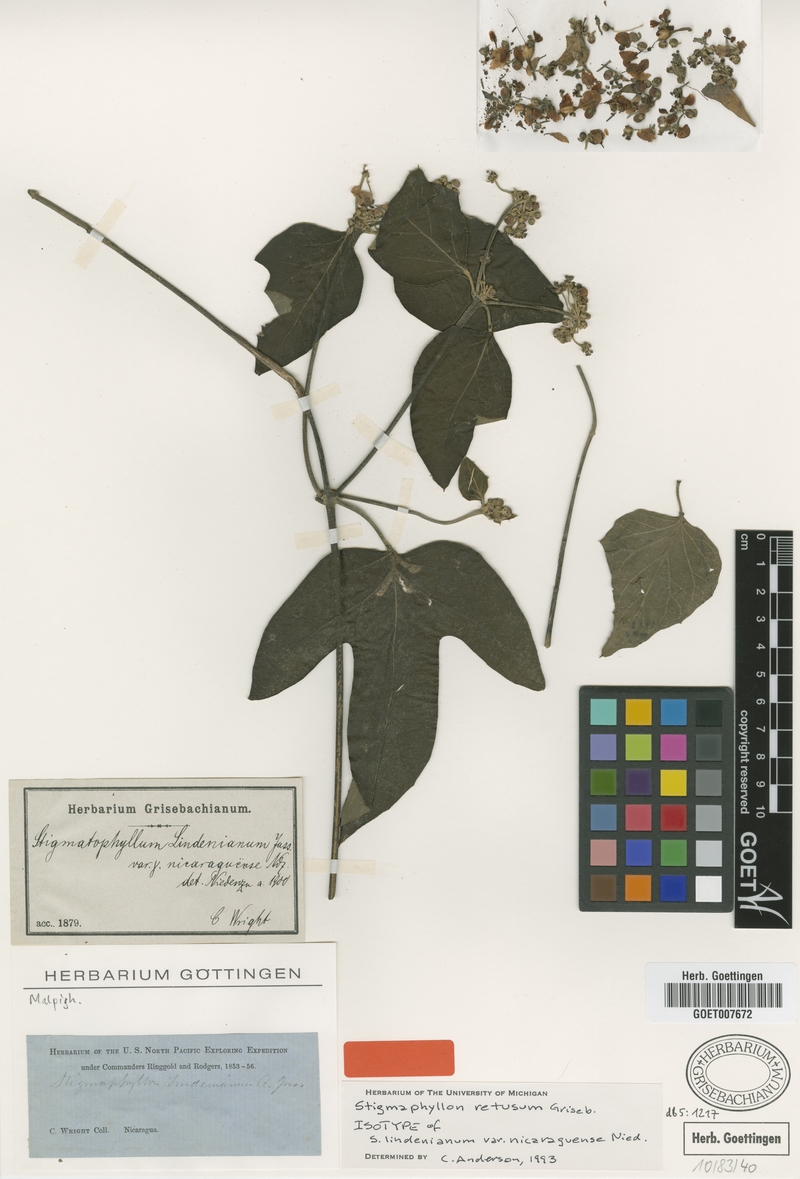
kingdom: Plantae
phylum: Tracheophyta
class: Magnoliopsida
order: Malpighiales
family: Malpighiaceae
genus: Stigmaphyllon
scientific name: Stigmaphyllon retusum
